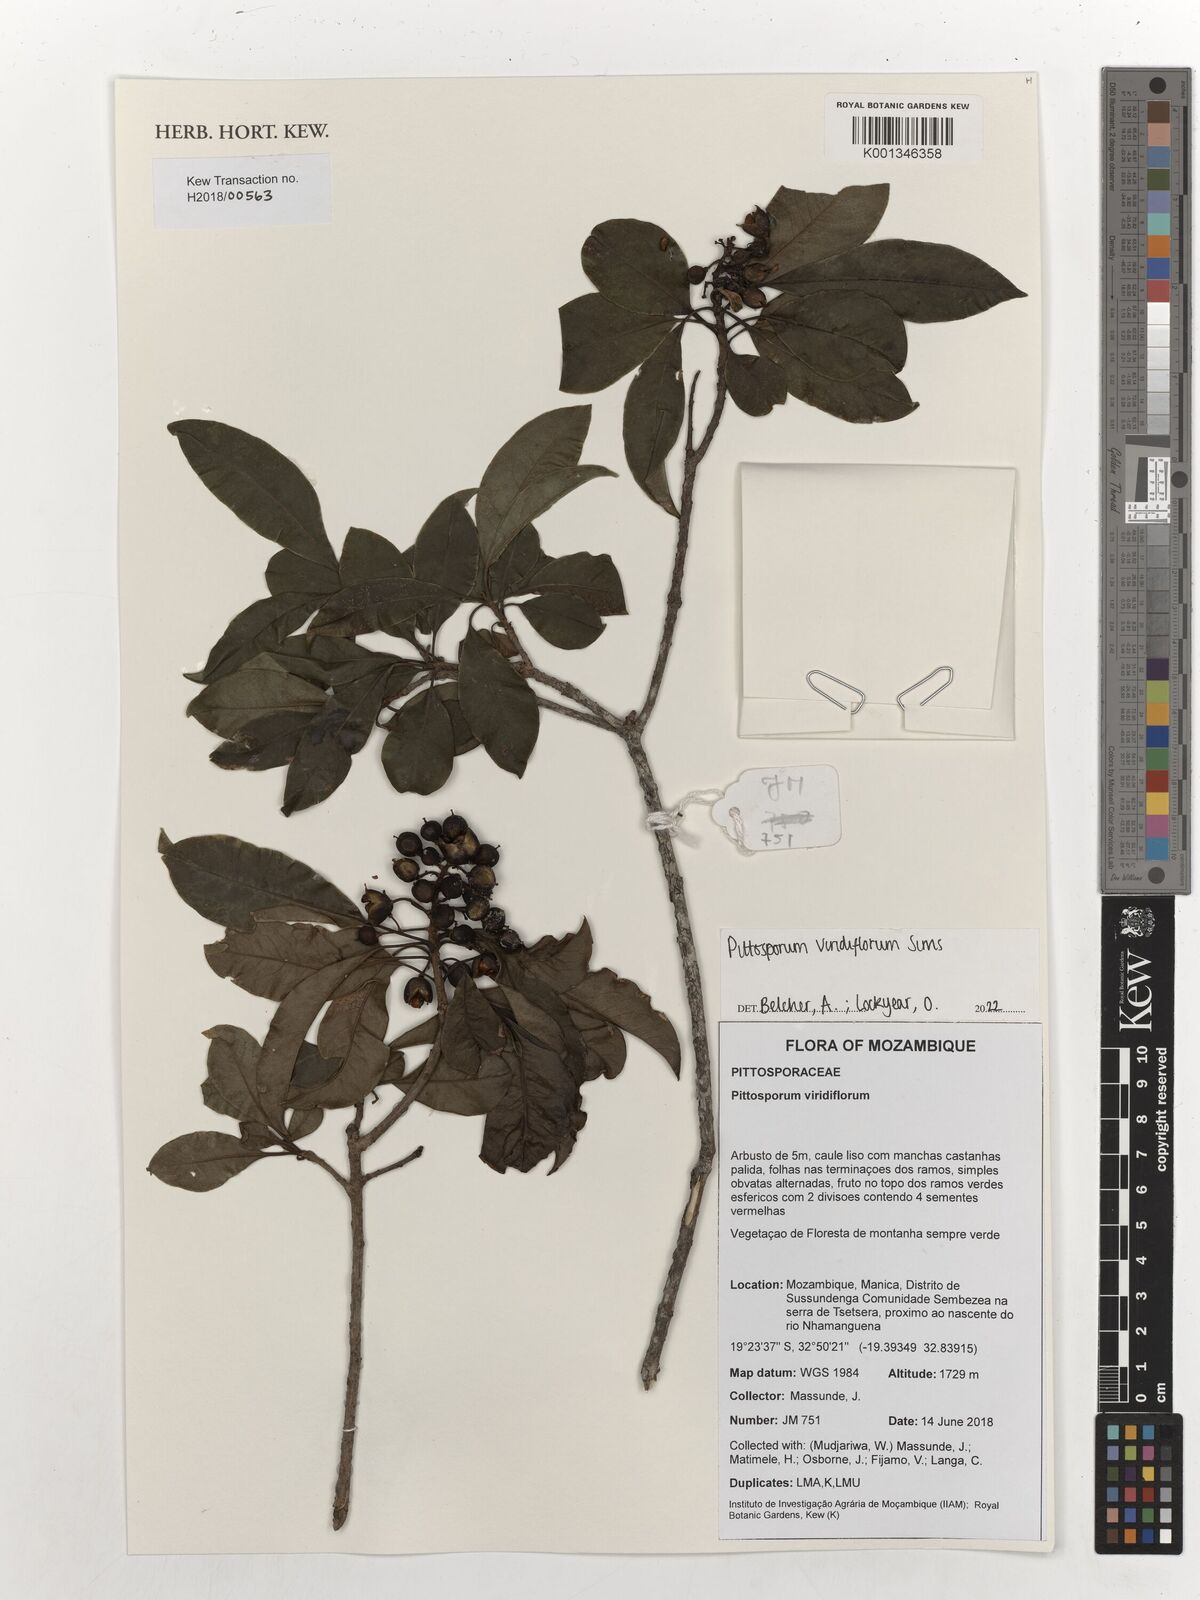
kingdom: Plantae
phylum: Tracheophyta
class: Magnoliopsida
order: Apiales
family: Pittosporaceae
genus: Pittosporum
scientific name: Pittosporum viridiflorum
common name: Cape cheesewood
